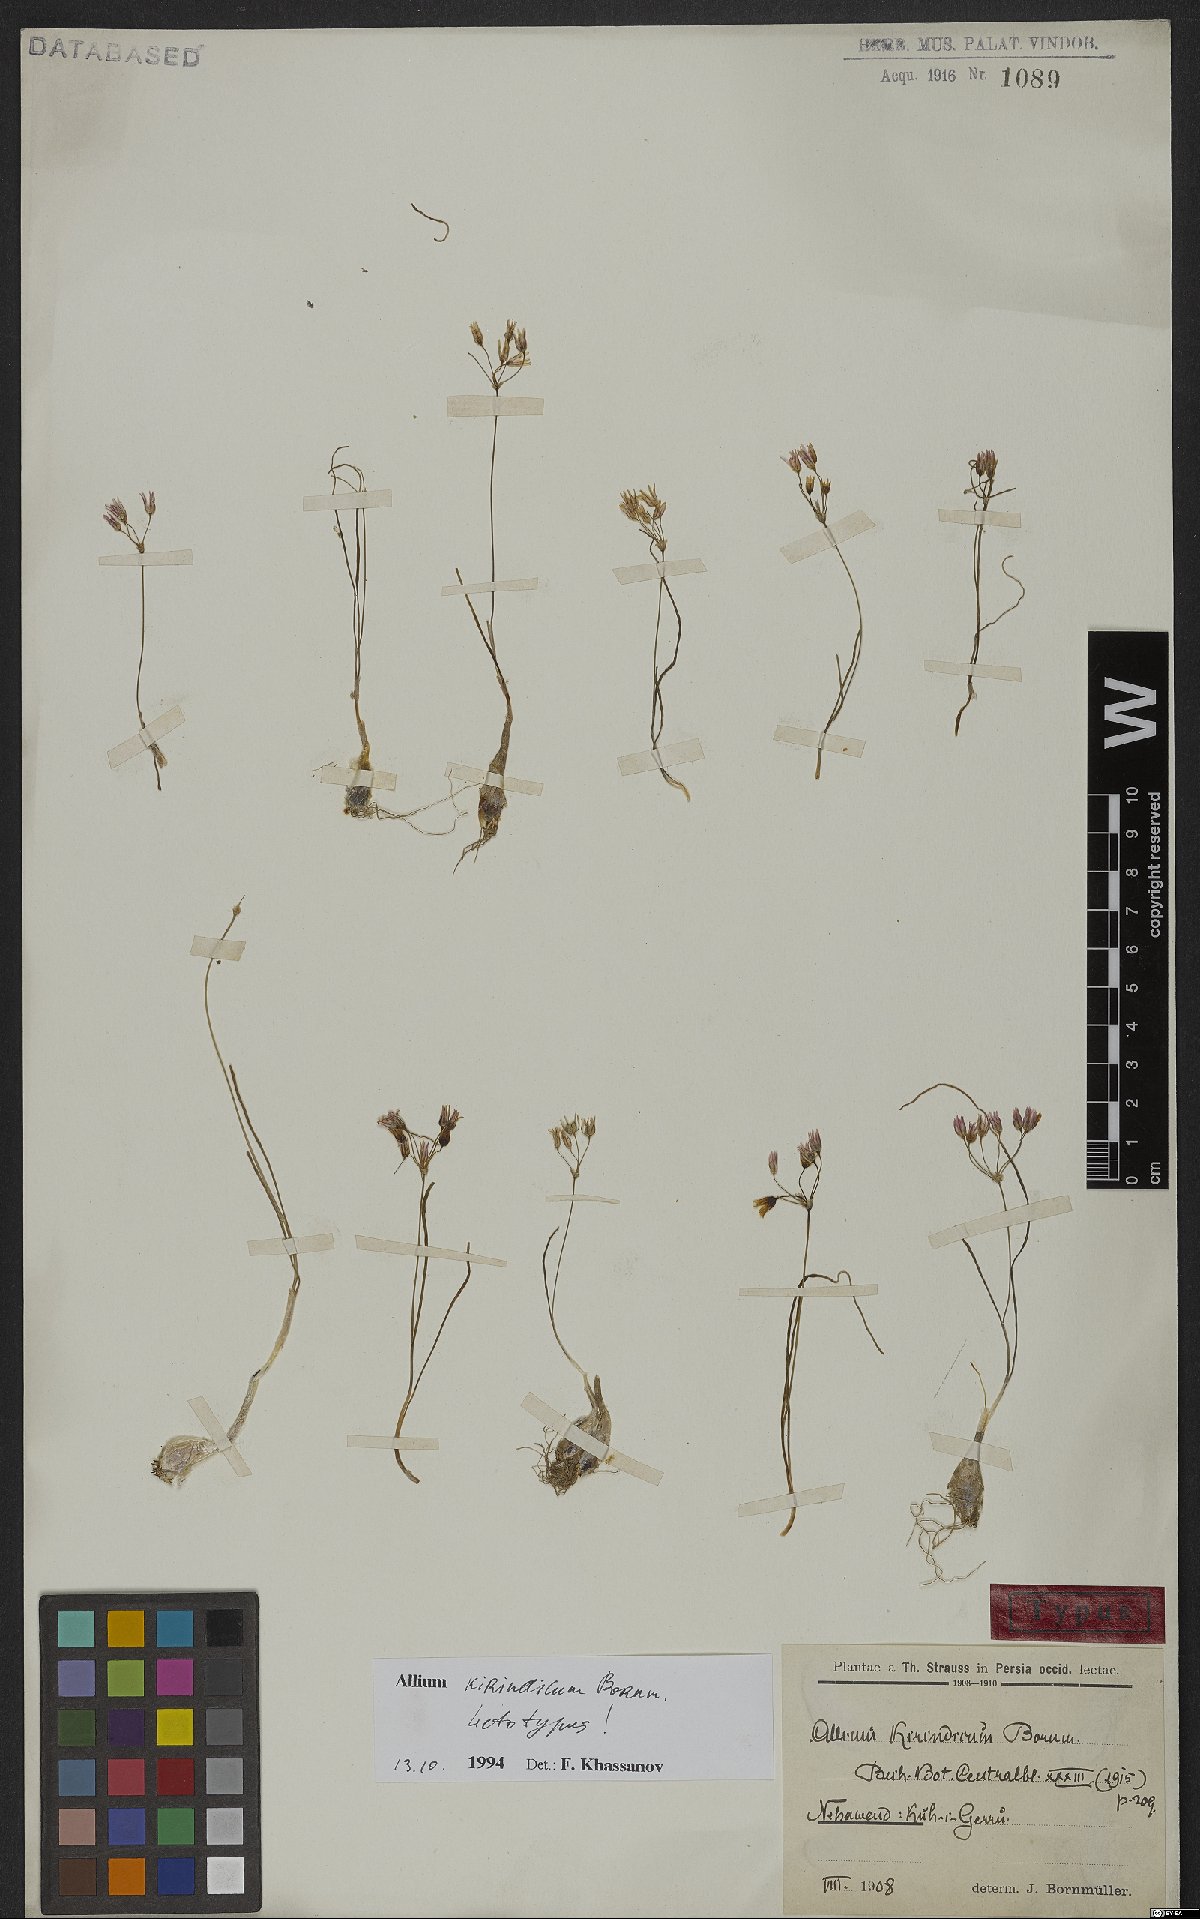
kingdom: Plantae
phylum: Tracheophyta
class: Liliopsida
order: Asparagales
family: Amaryllidaceae
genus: Allium
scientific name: Allium kirindicum
